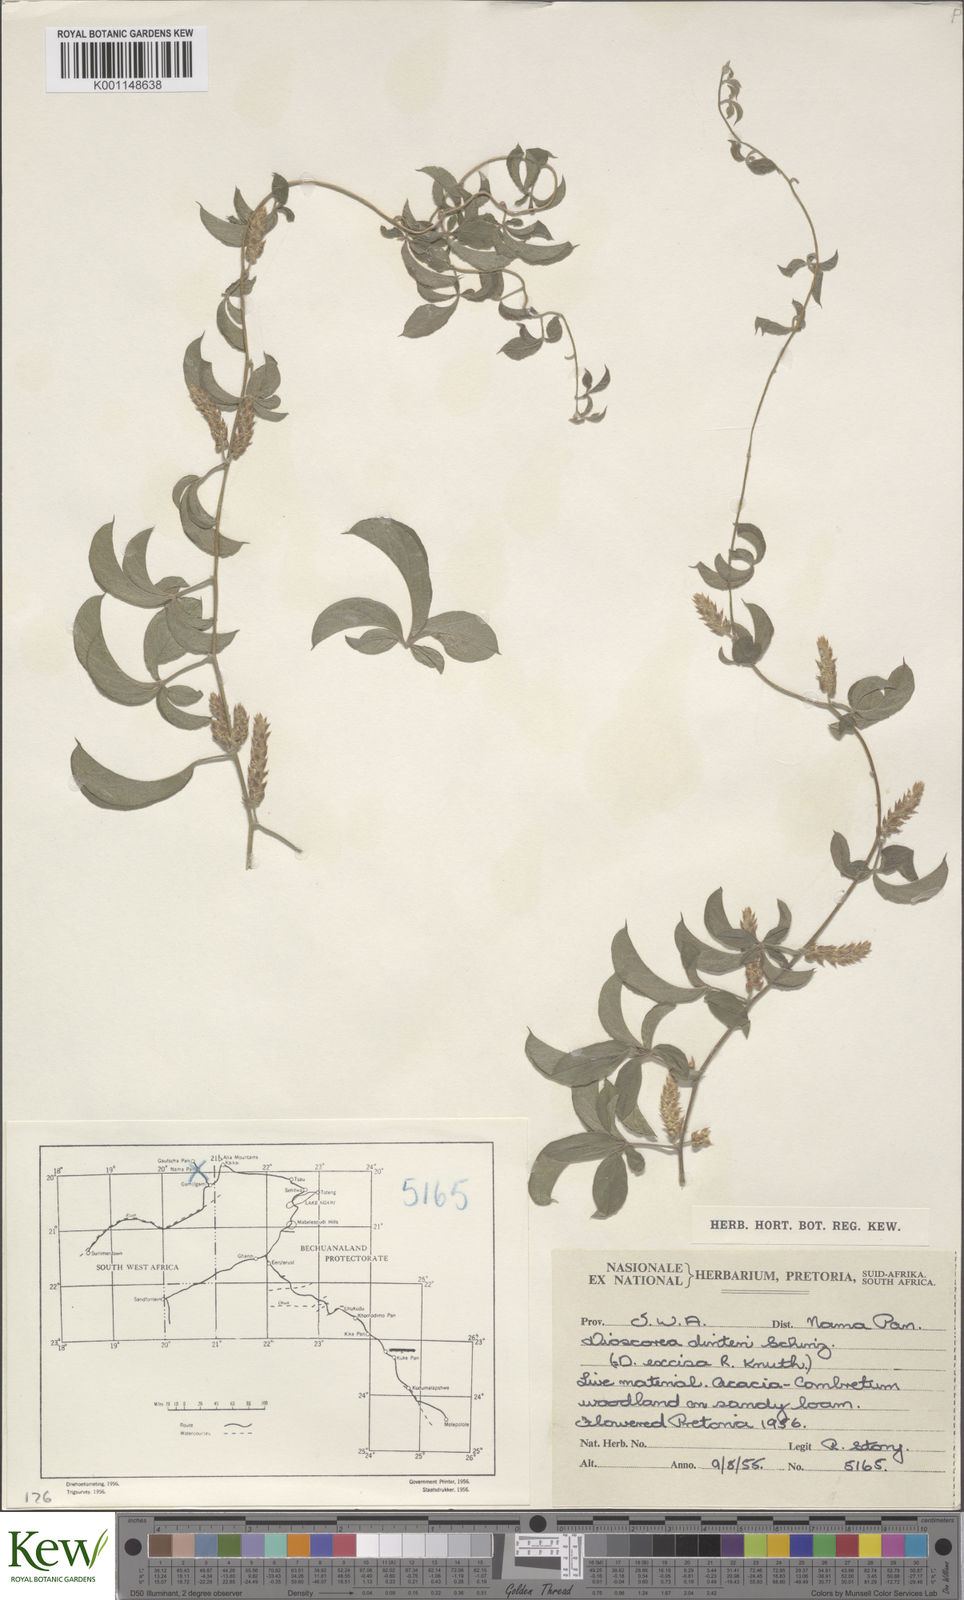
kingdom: Plantae
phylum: Tracheophyta
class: Liliopsida
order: Dioscoreales
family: Dioscoreaceae
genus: Dioscorea
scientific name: Dioscorea quartiniana
